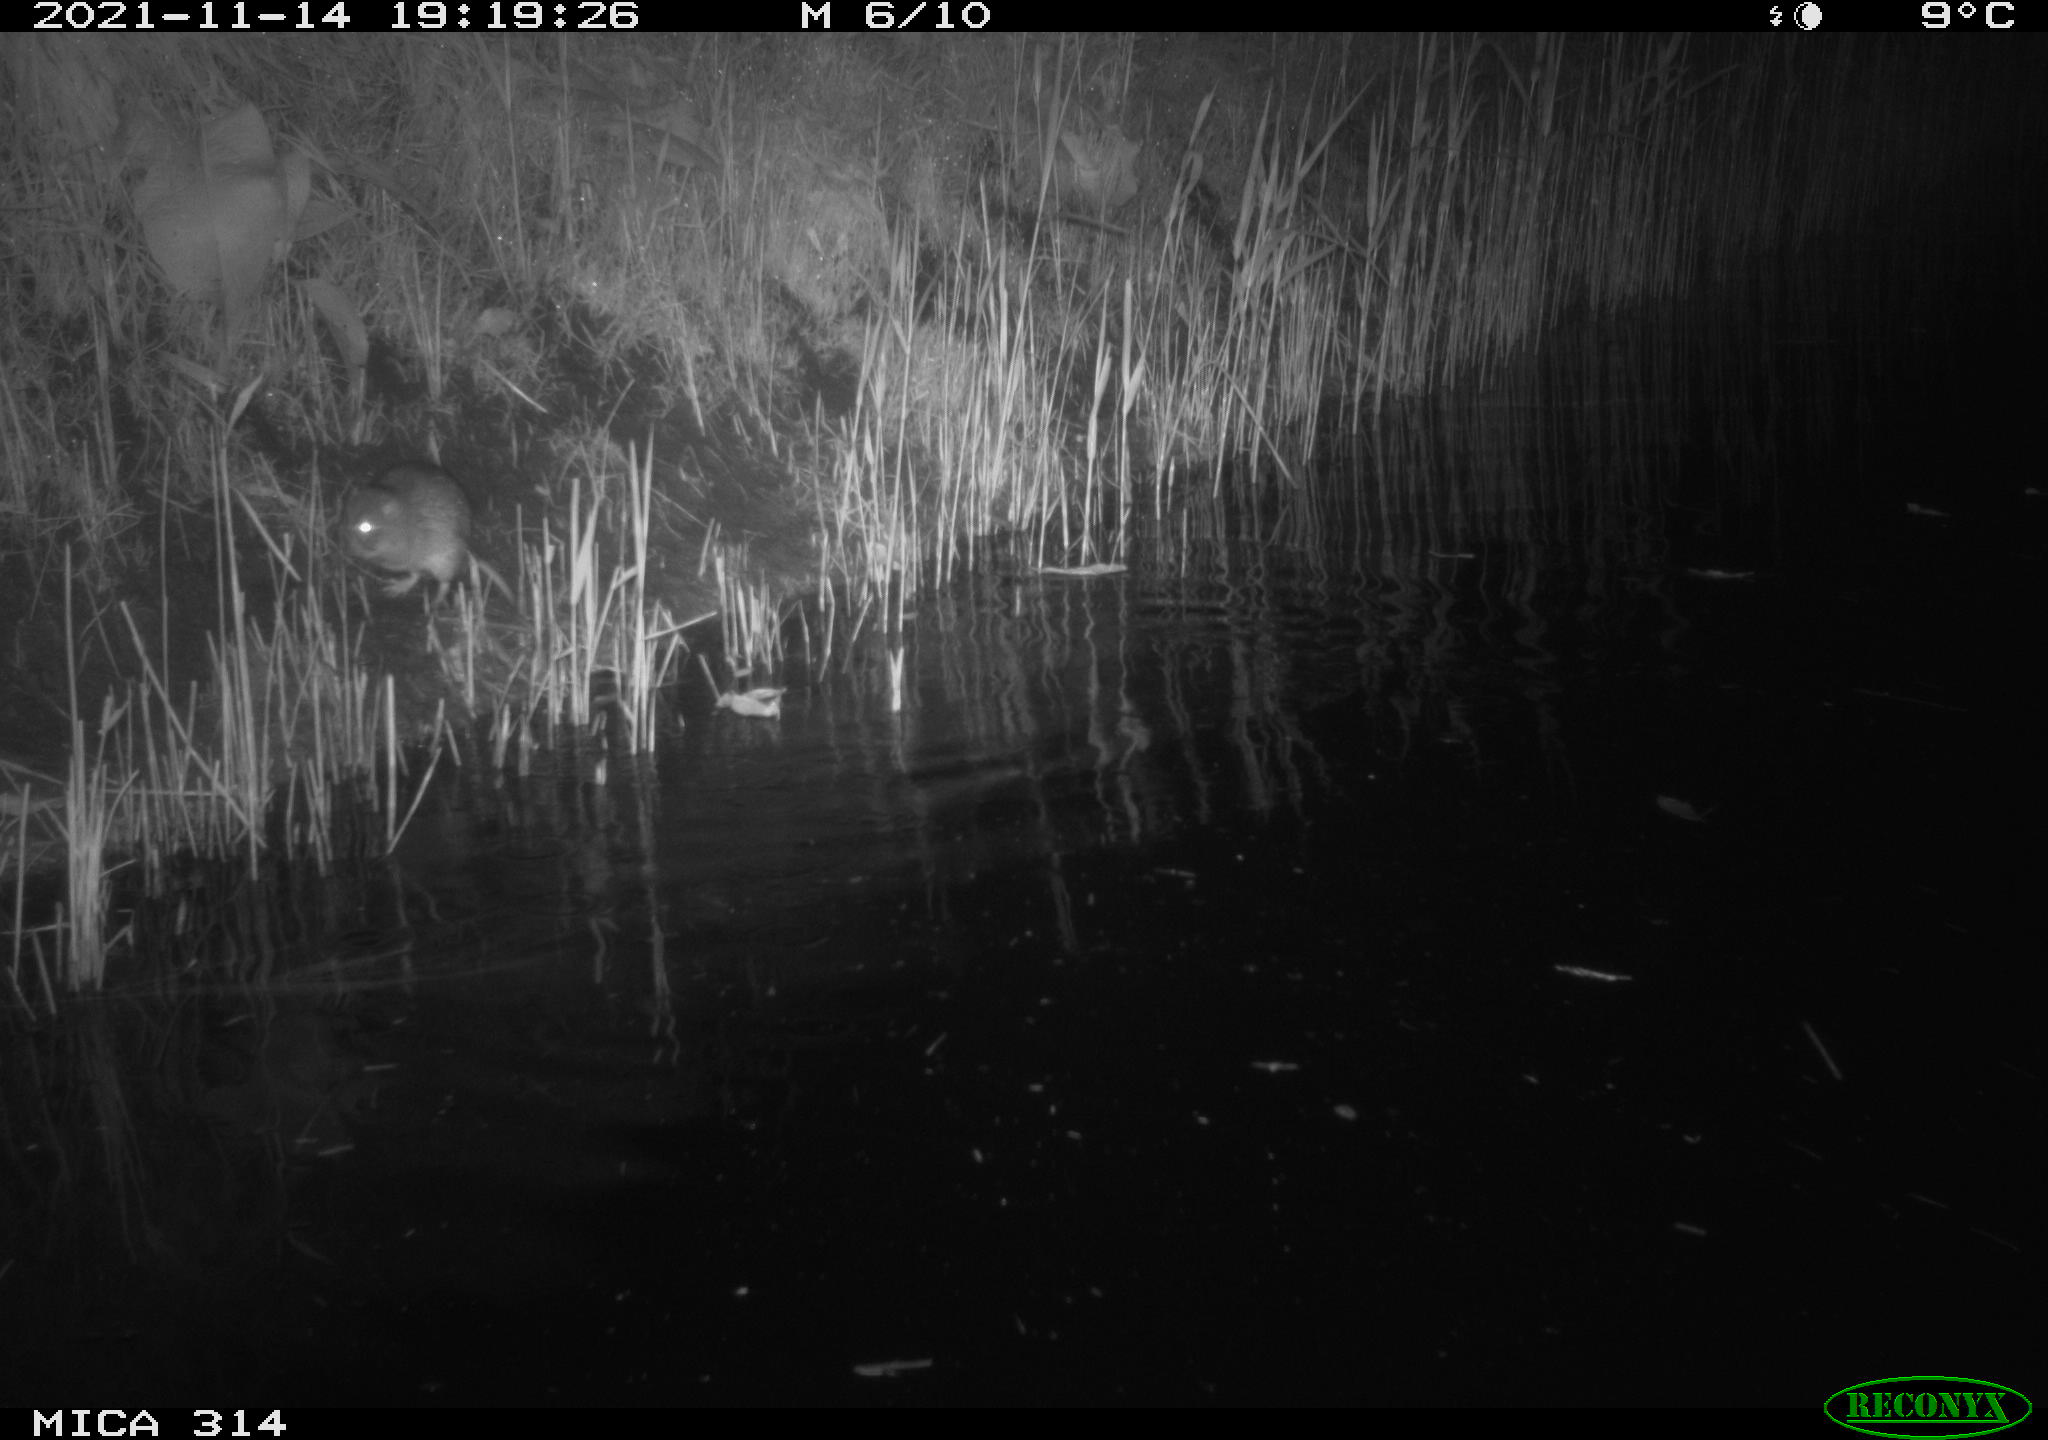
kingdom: Animalia
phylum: Chordata
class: Mammalia
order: Rodentia
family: Muridae
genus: Rattus
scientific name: Rattus norvegicus
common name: Brown rat
